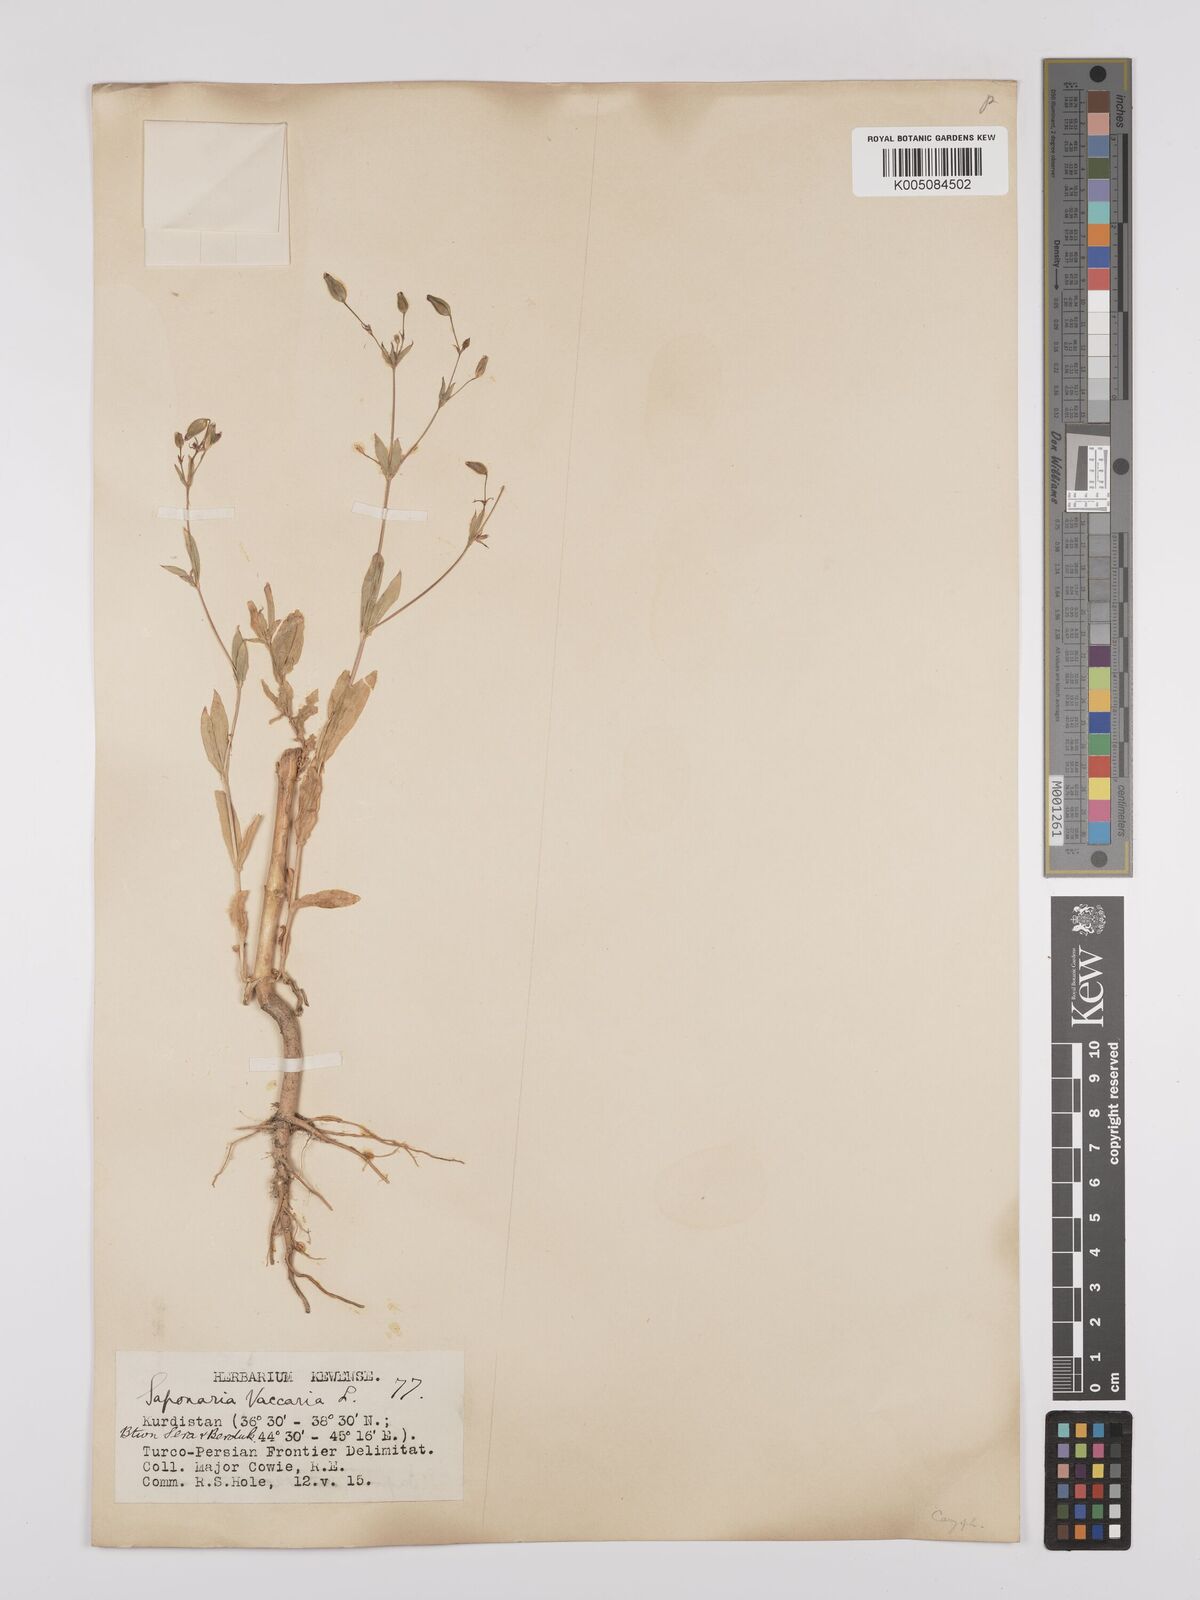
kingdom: Plantae
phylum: Tracheophyta
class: Magnoliopsida
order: Caryophyllales
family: Caryophyllaceae
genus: Gypsophila
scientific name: Gypsophila vaccaria
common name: Cow soapwort
